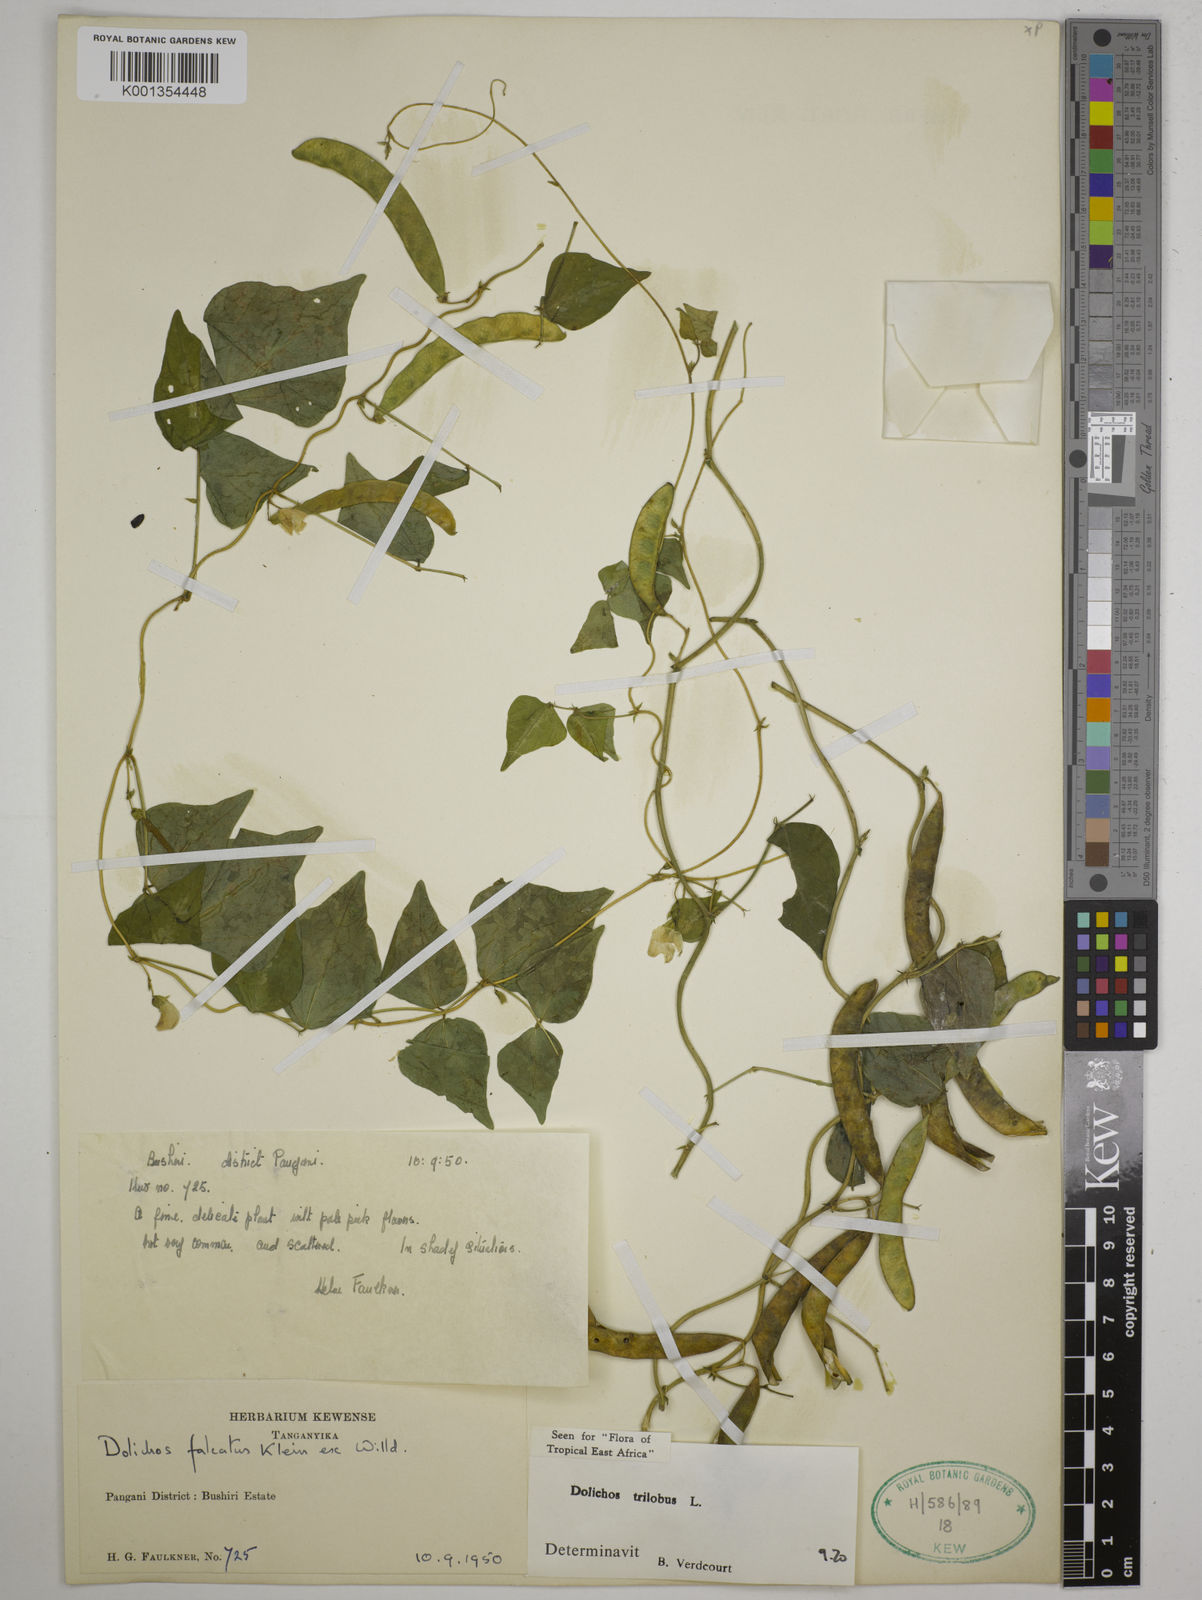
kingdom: Plantae
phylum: Tracheophyta
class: Magnoliopsida
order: Fabales
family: Fabaceae
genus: Dolichos
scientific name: Dolichos
